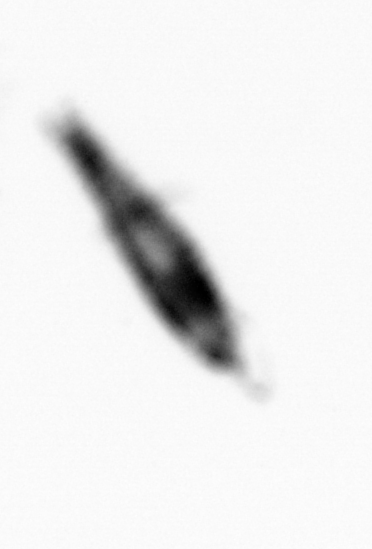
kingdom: Animalia
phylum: Arthropoda
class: Copepoda
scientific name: Copepoda
